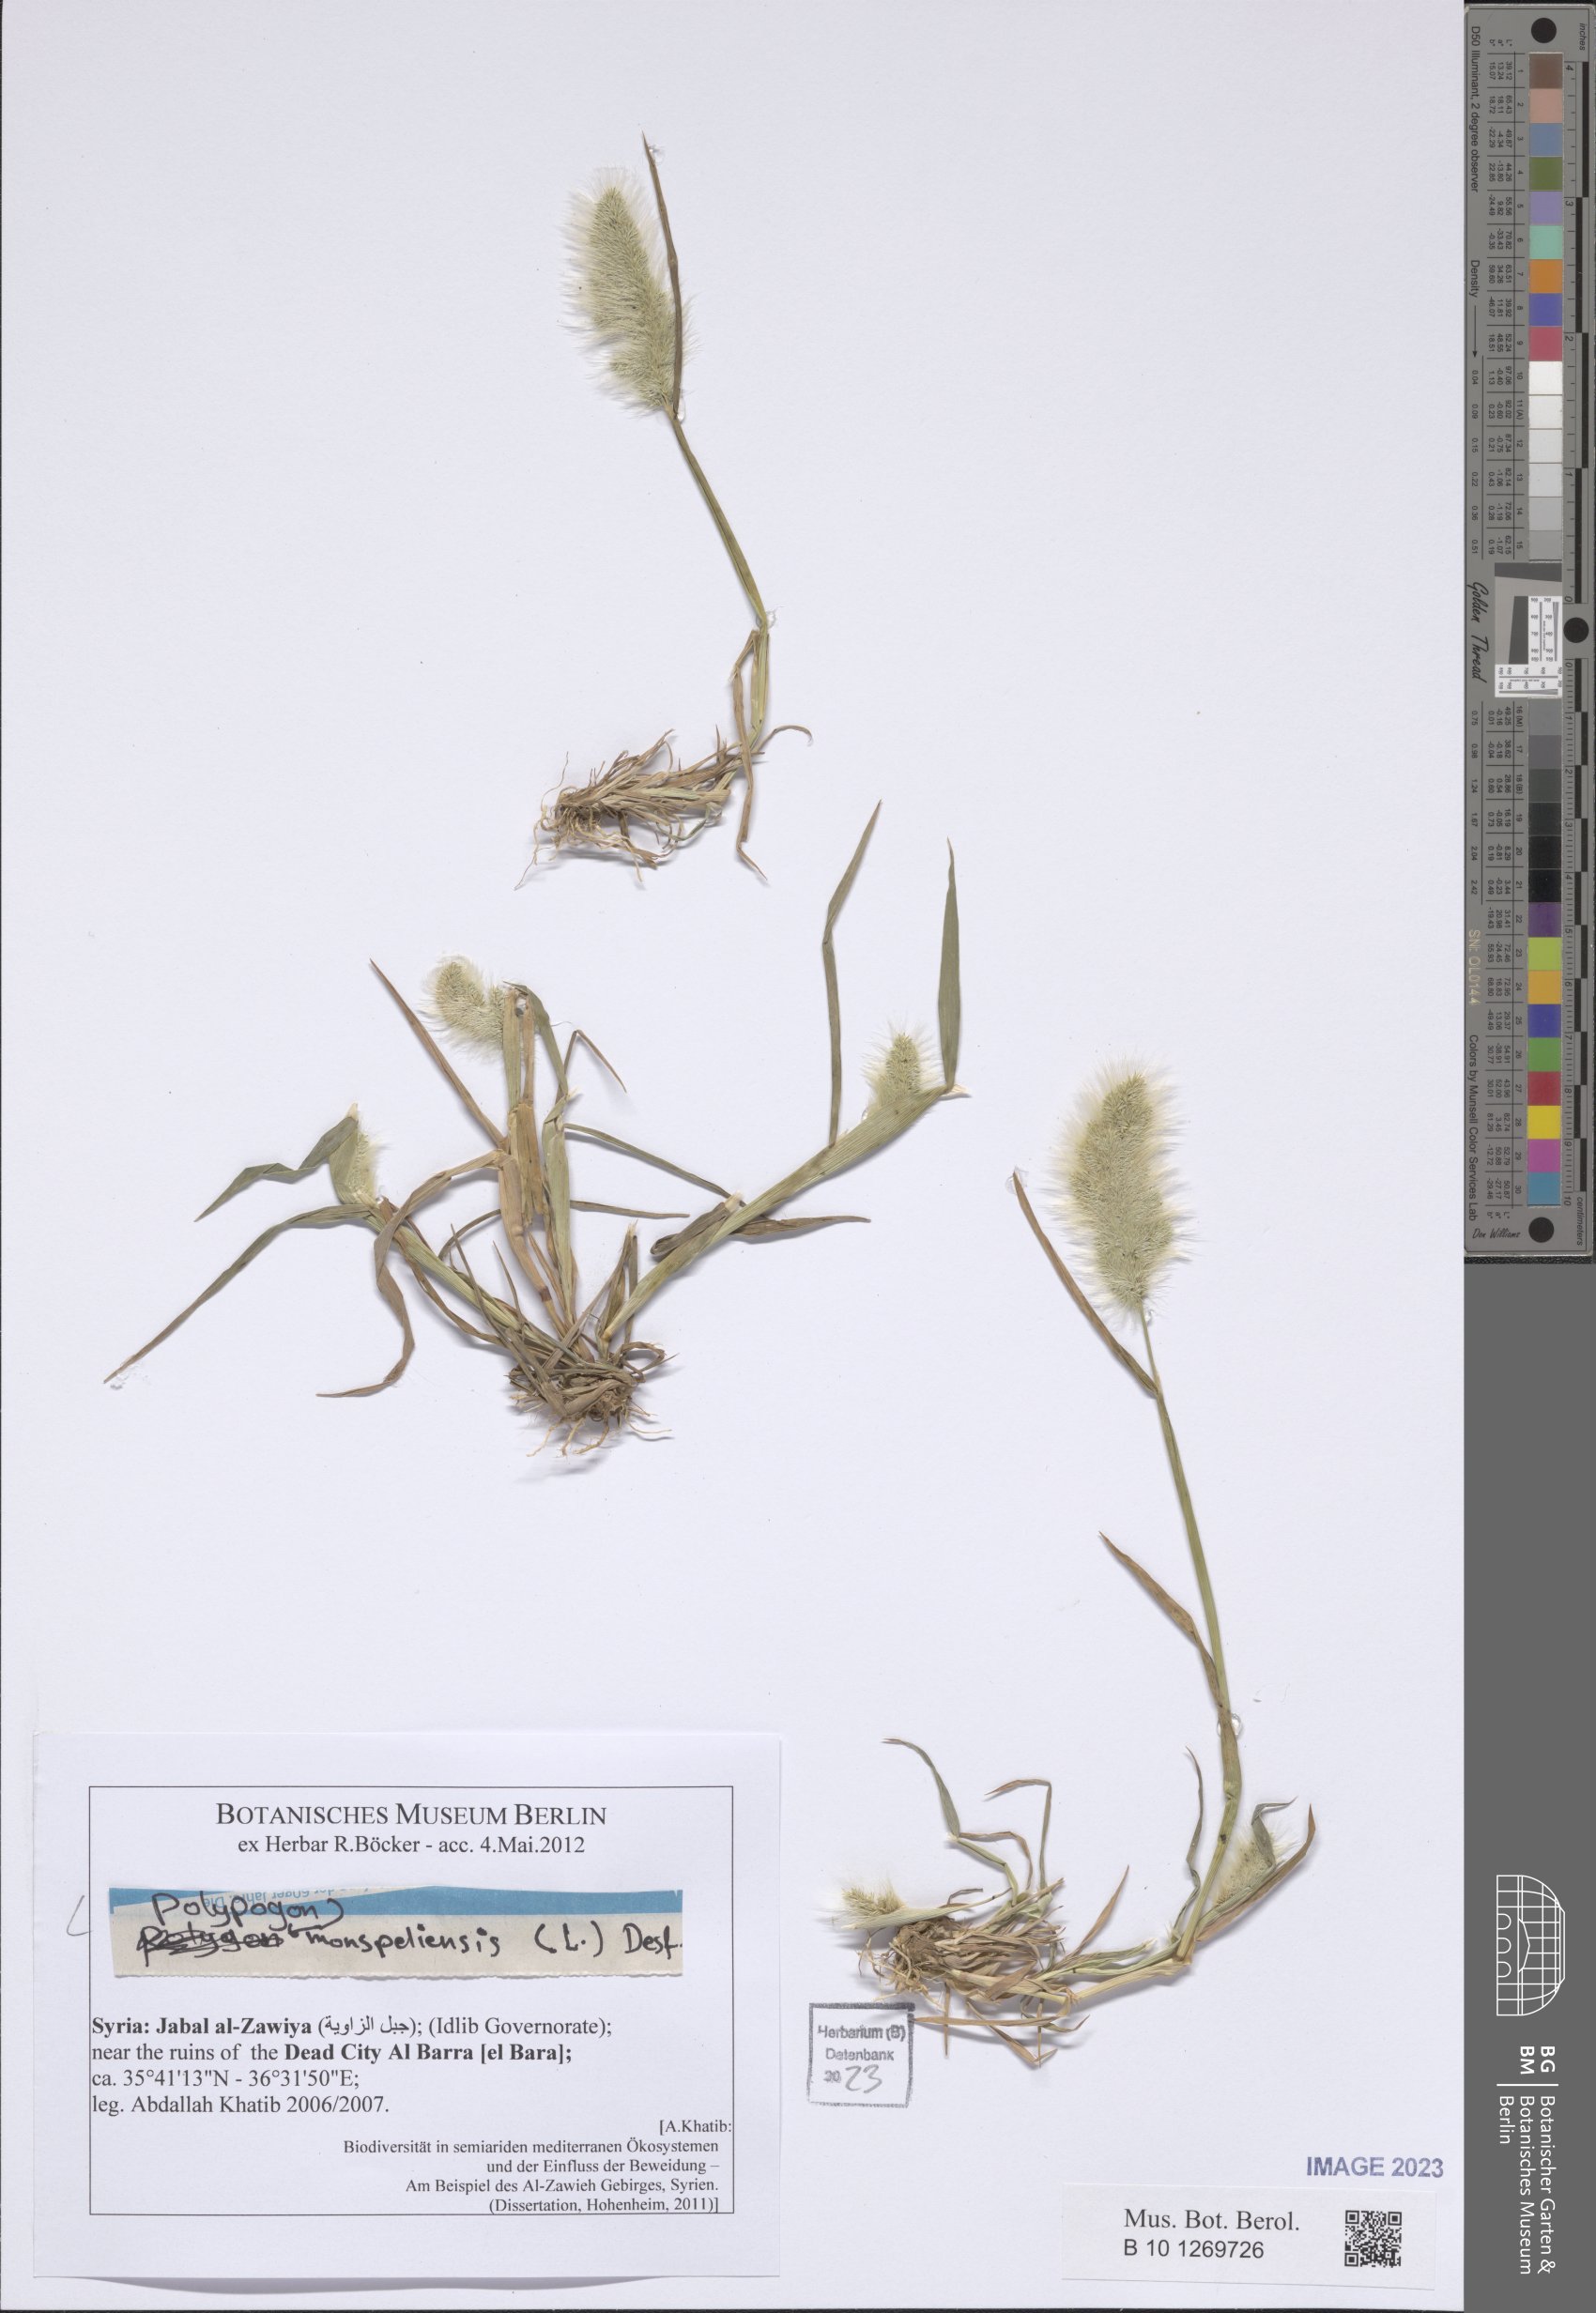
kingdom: Plantae
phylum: Tracheophyta
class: Liliopsida
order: Poales
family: Poaceae
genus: Polypogon
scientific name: Polypogon monspeliensis
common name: Annual rabbitsfoot grass
